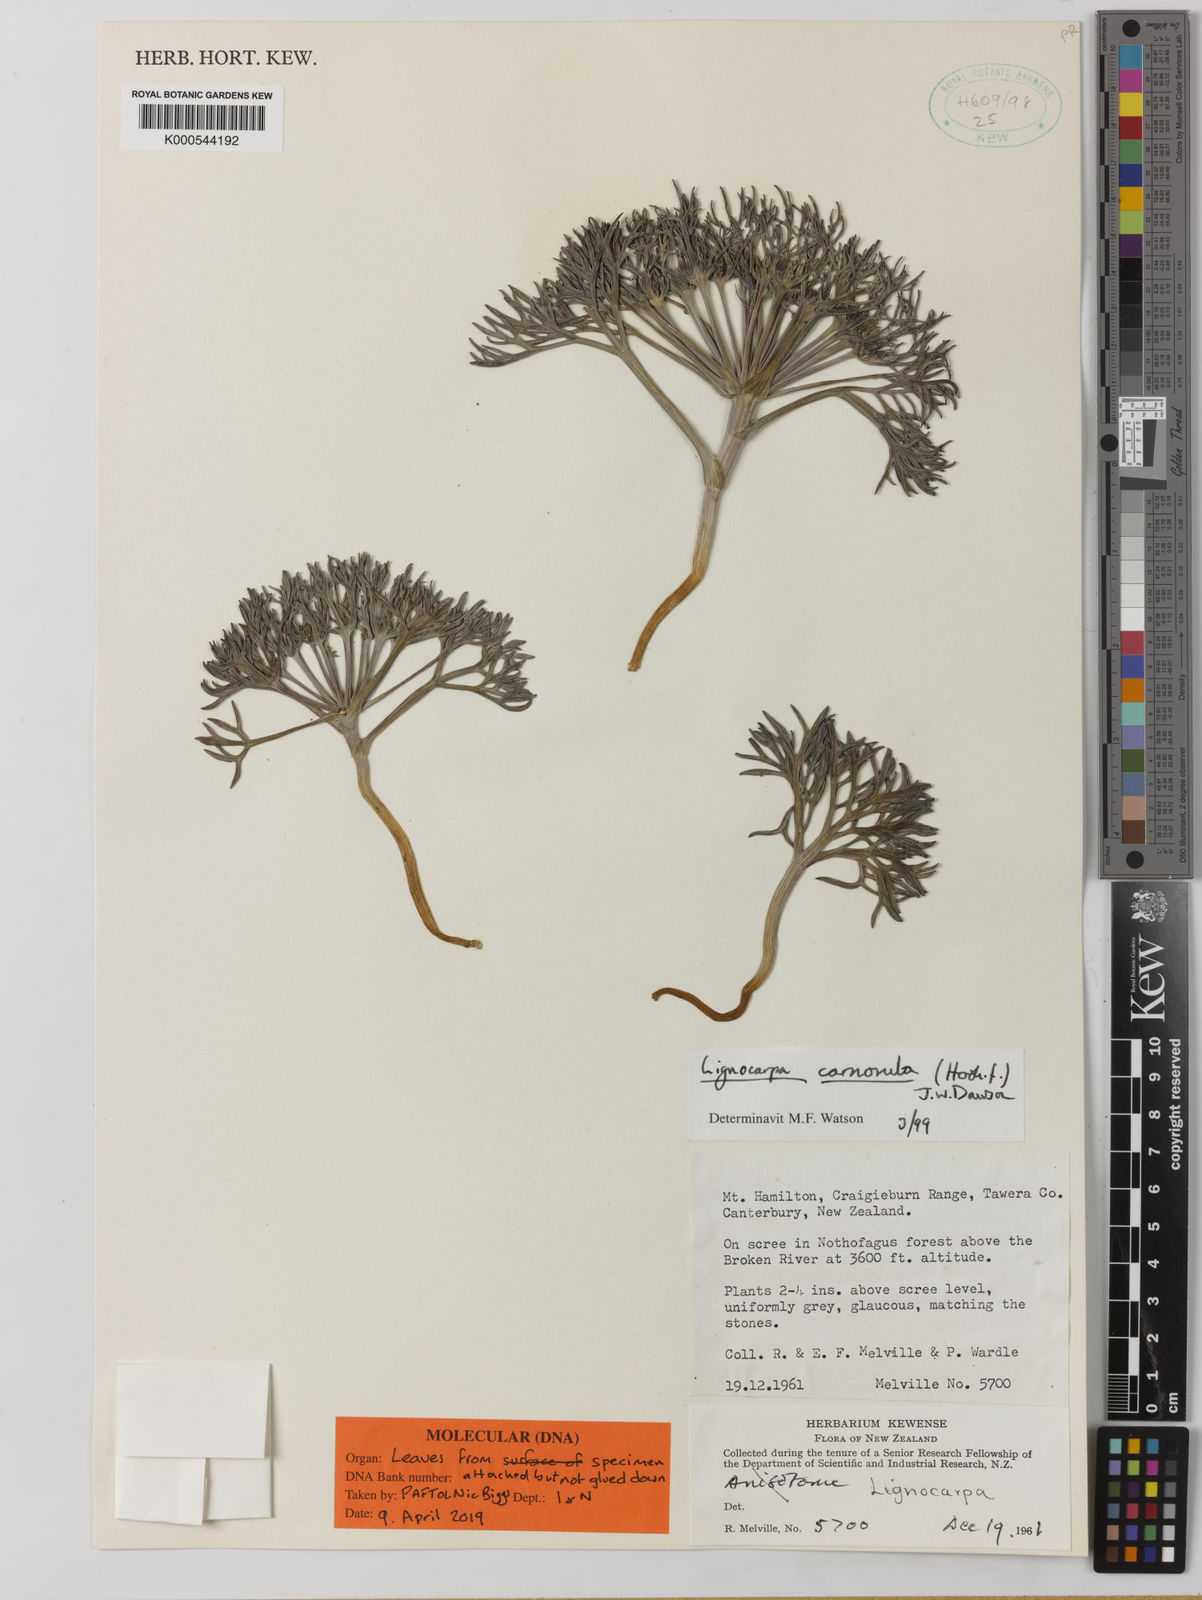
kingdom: Plantae
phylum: Tracheophyta
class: Magnoliopsida
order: Apiales
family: Apiaceae
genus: Lignocarpa
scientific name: Lignocarpa
